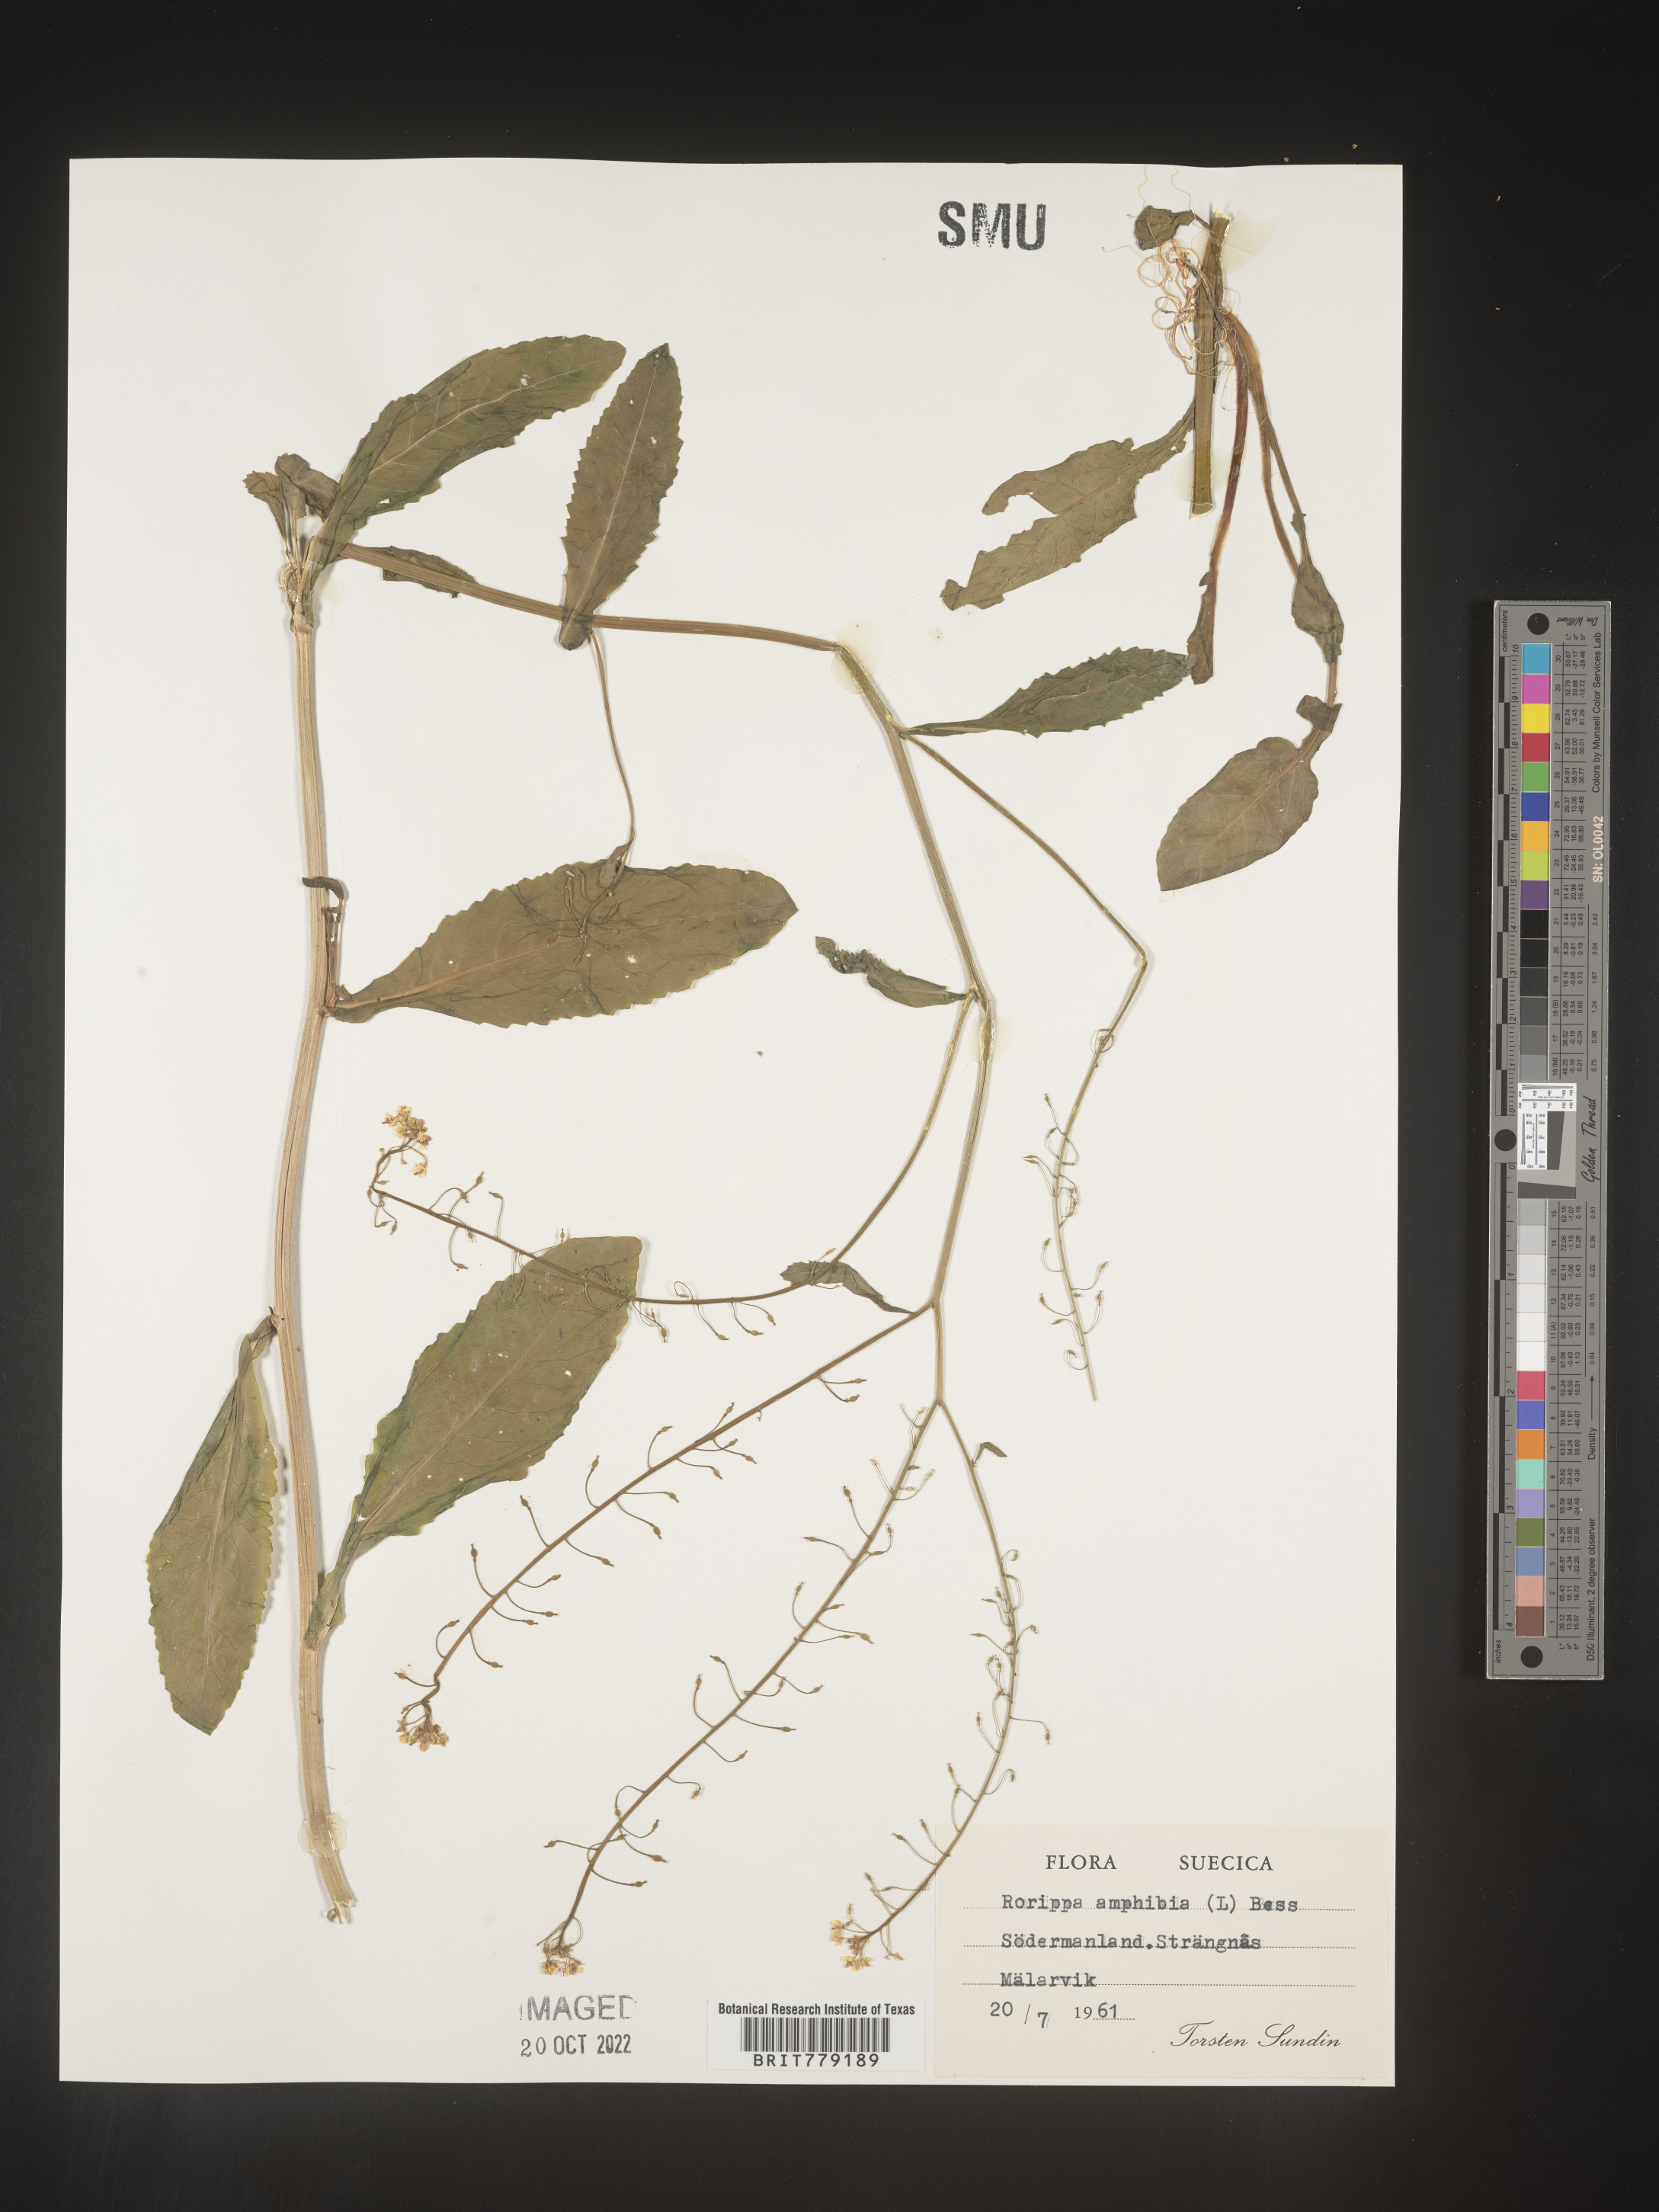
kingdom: Plantae
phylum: Tracheophyta
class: Magnoliopsida
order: Brassicales
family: Brassicaceae
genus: Rorippa
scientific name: Rorippa
